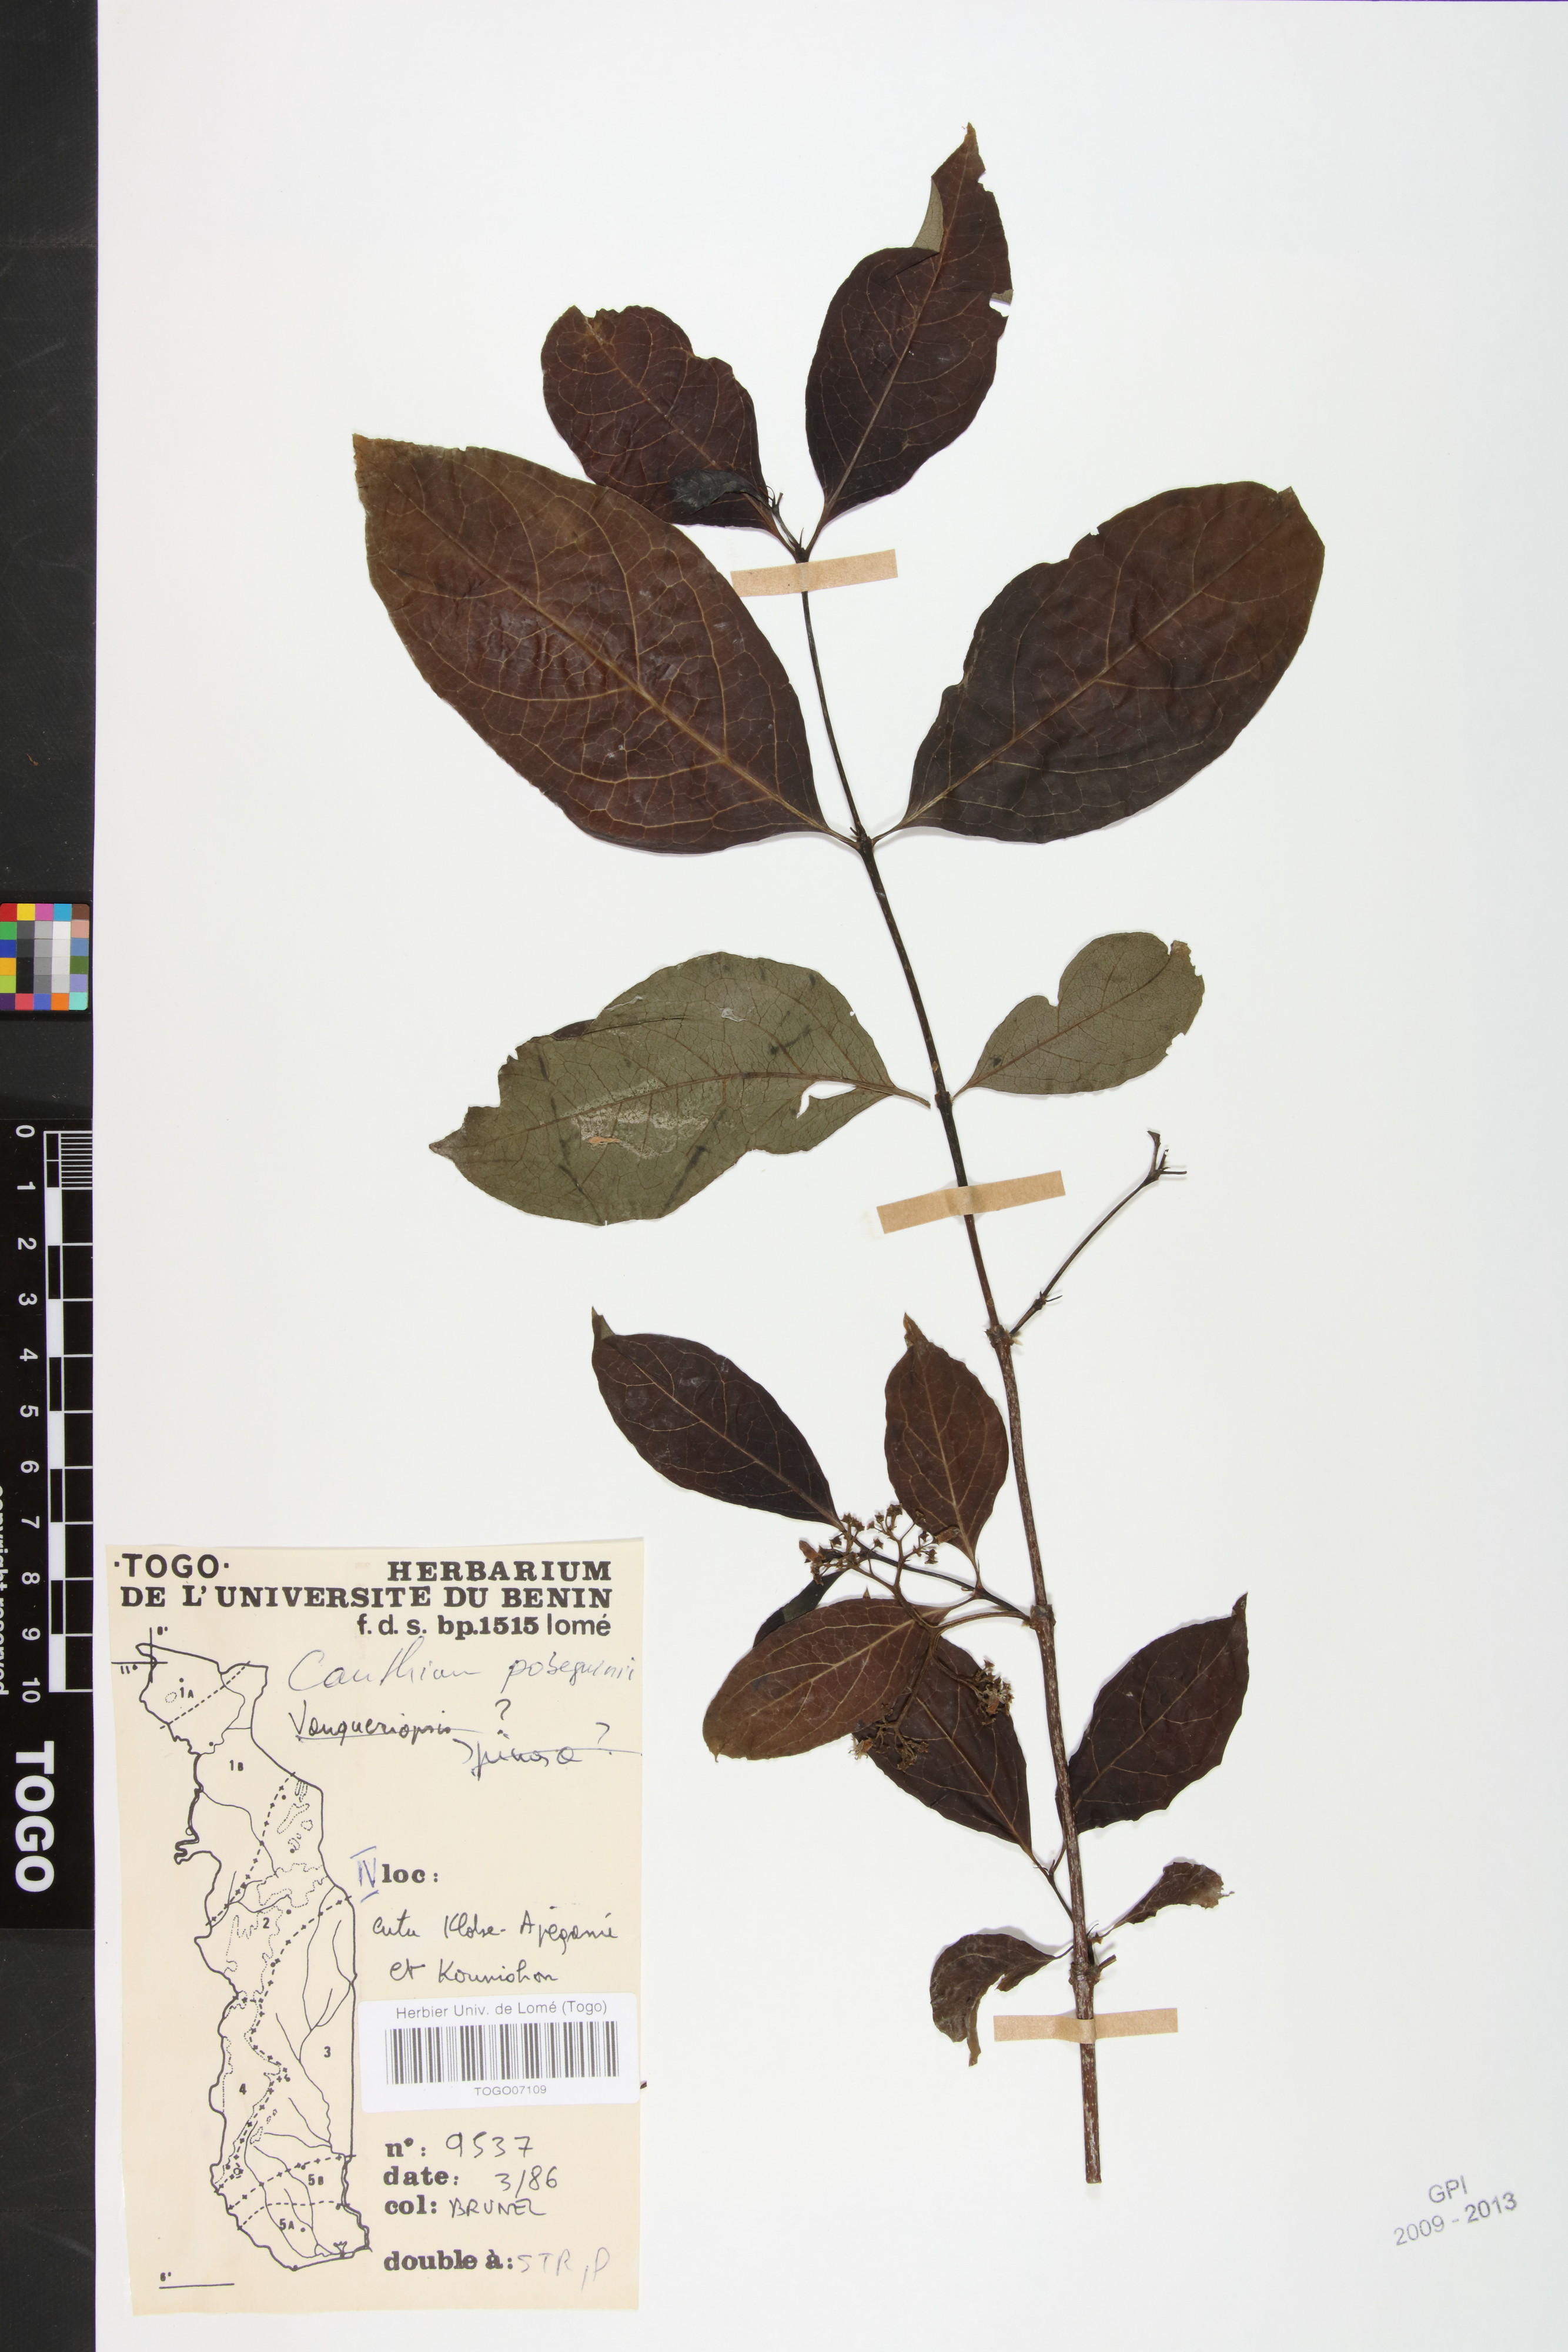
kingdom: Plantae
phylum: Tracheophyta
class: Magnoliopsida
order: Gentianales
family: Rubiaceae
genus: Multidentia
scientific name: Multidentia pobeguinii
